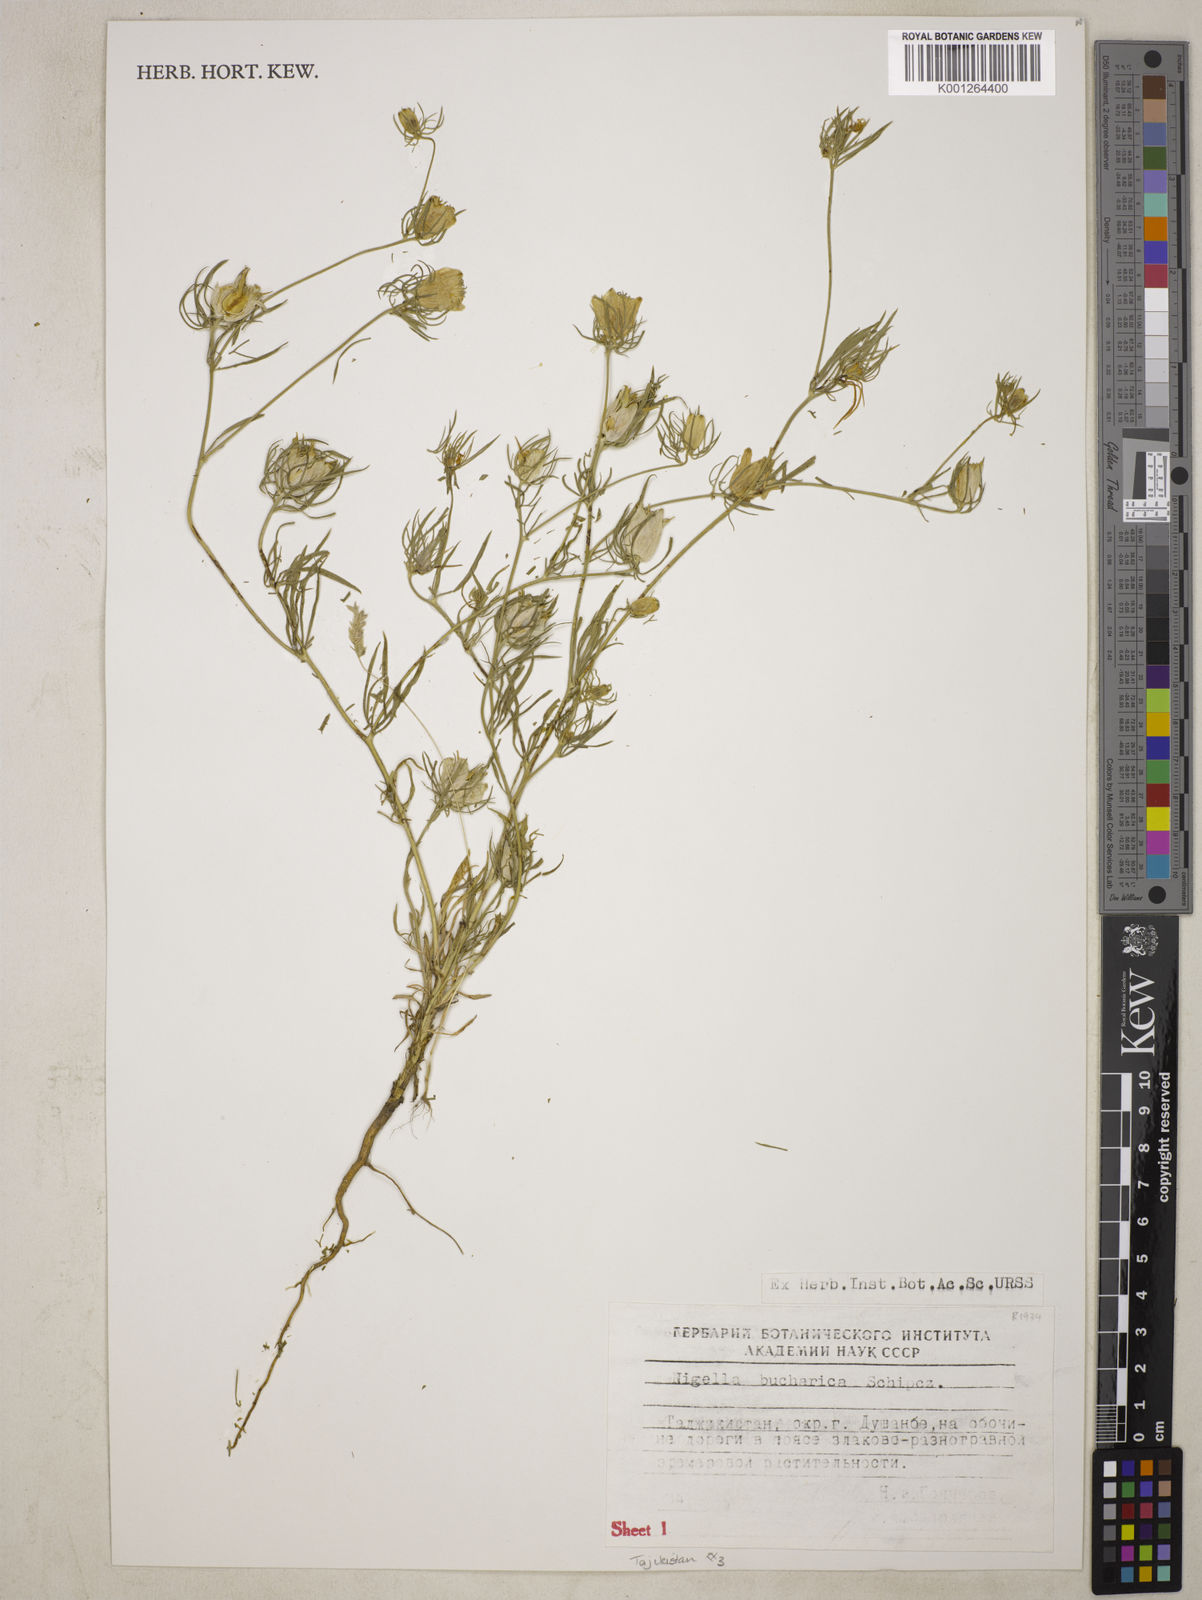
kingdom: Plantae
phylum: Tracheophyta
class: Magnoliopsida
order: Ranunculales
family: Ranunculaceae
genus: Komaroffia
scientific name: Komaroffia bucharica
